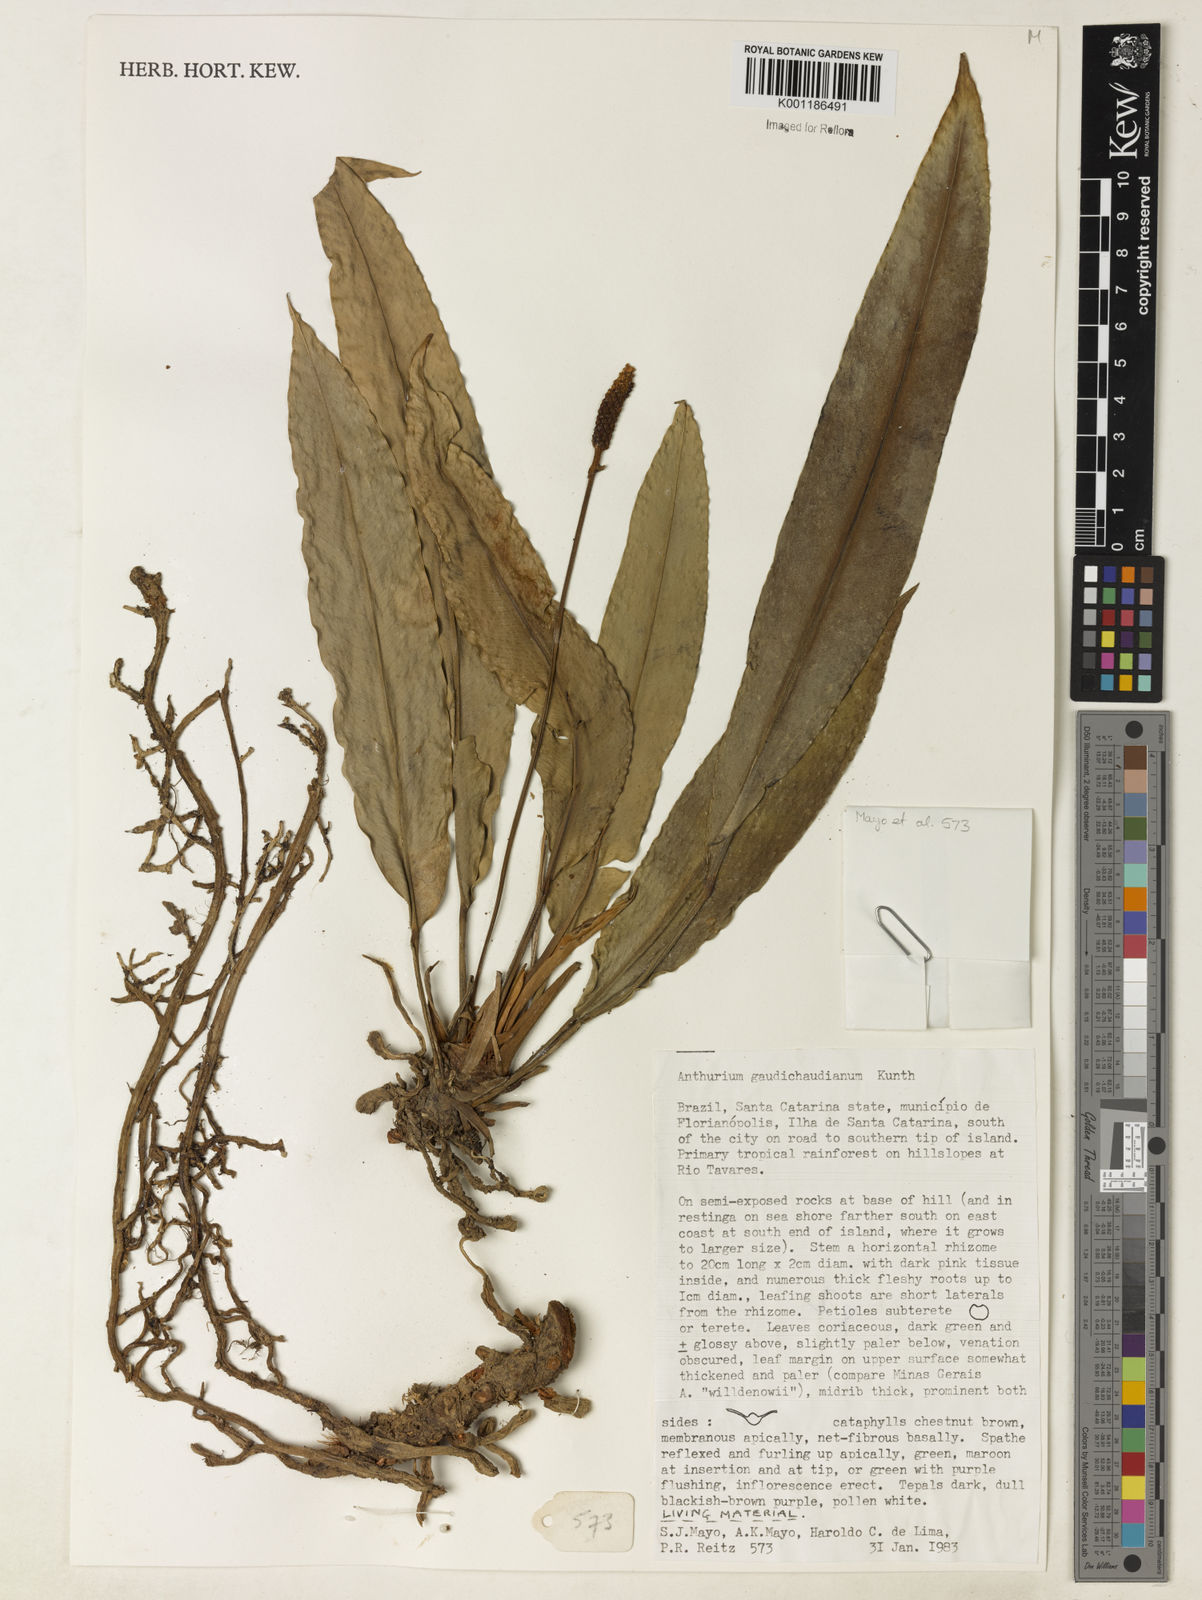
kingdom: Plantae
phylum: Tracheophyta
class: Liliopsida
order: Alismatales
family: Araceae
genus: Anthurium
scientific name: Anthurium gaudichaudianum
